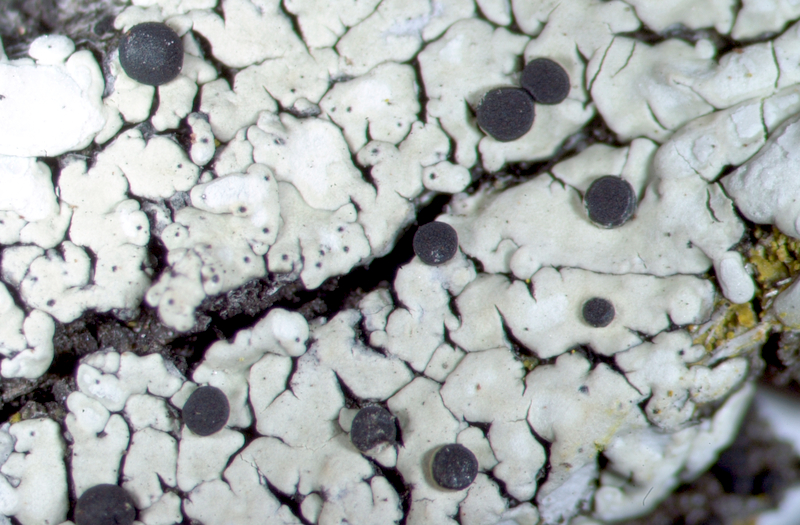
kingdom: Fungi
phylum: Ascomycota
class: Lecanoromycetes
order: Caliciales
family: Caliciaceae
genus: Amandinea
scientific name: Amandinea extenuata
